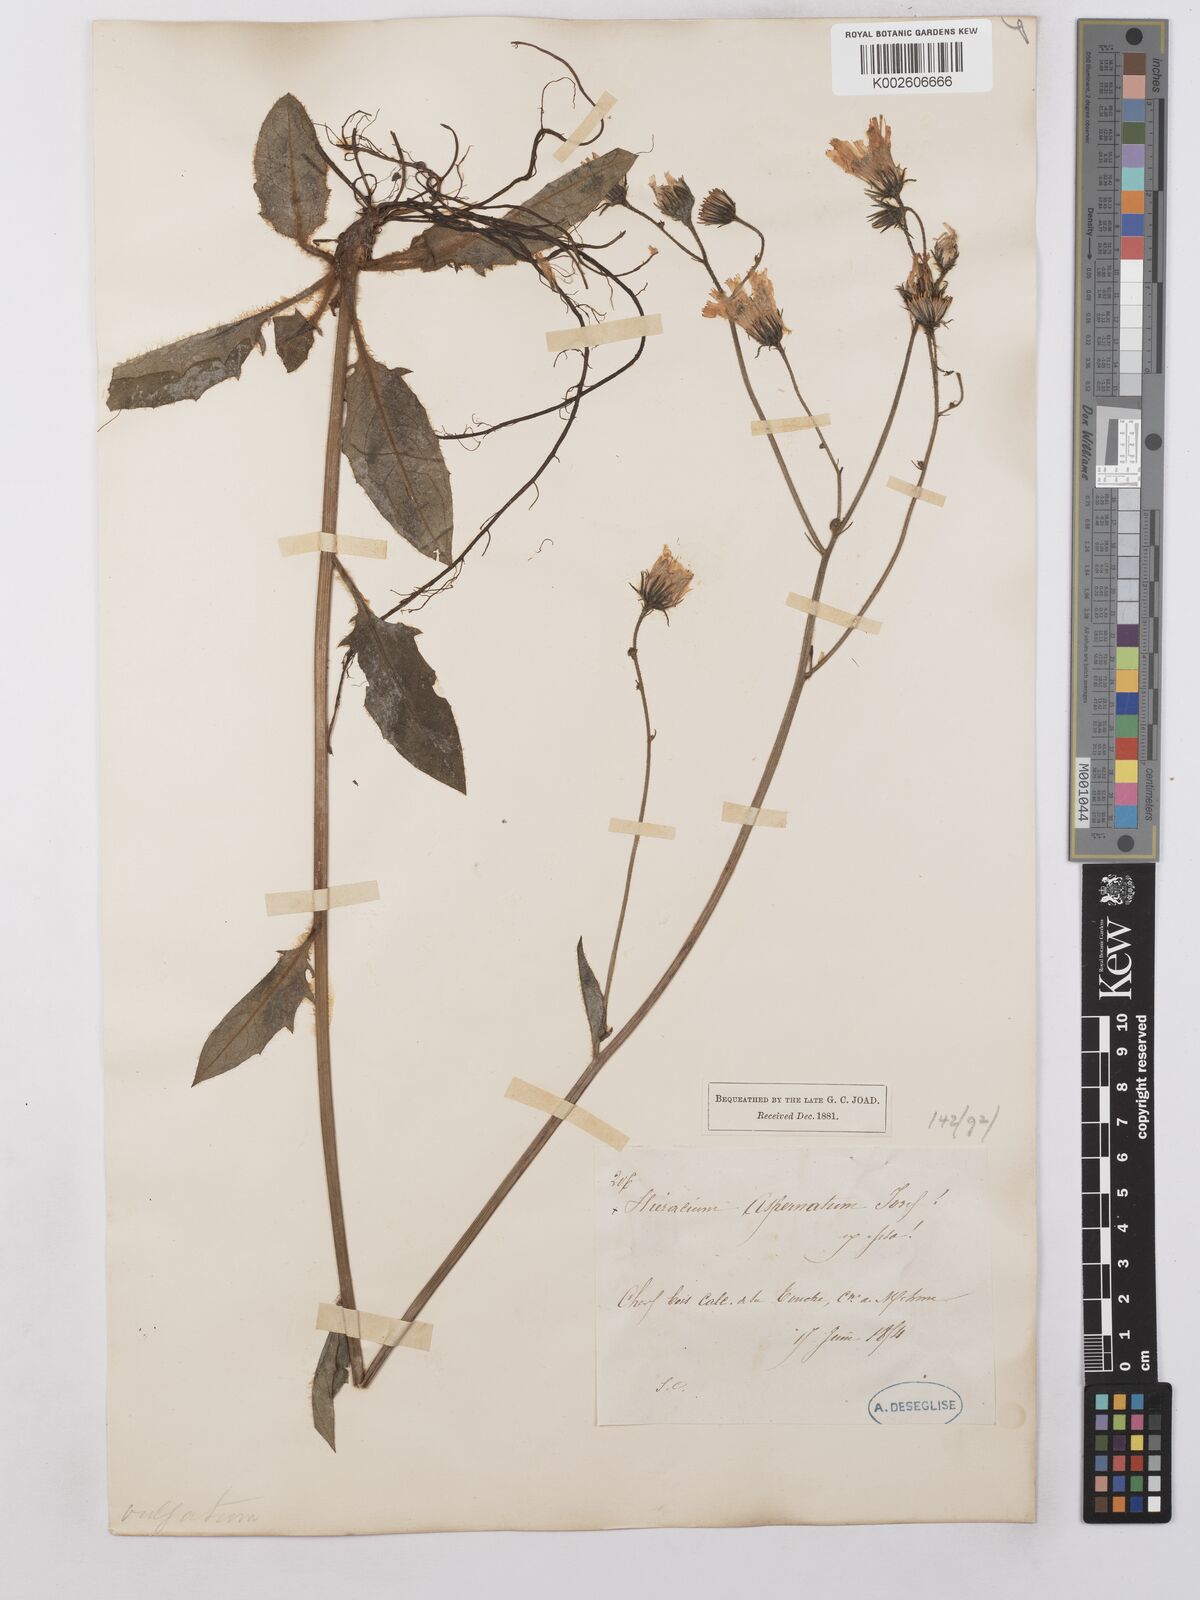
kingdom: Plantae
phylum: Tracheophyta
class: Magnoliopsida
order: Asterales
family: Asteraceae
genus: Hieracium
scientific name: Hieracium lachenalii
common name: Common hawkweed
